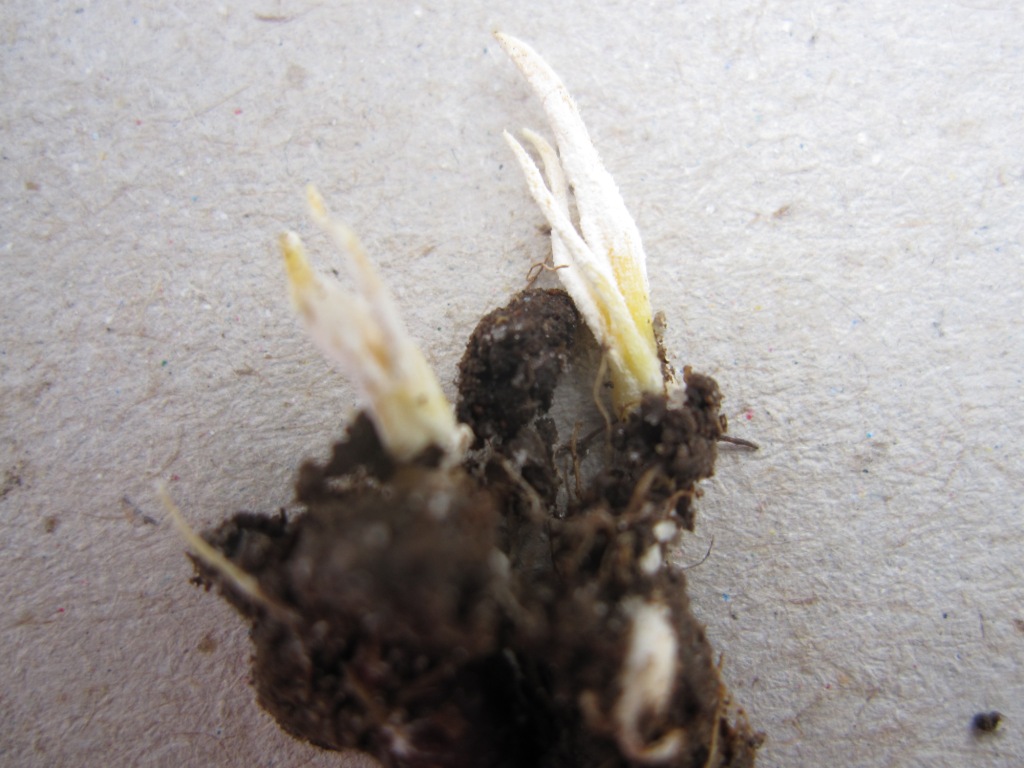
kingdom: Fungi
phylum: Ascomycota
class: Sordariomycetes
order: Hypocreales
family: Cordycipitaceae
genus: Cordyceps
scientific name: Cordyceps tenuipes
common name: støvende snyltekølle
